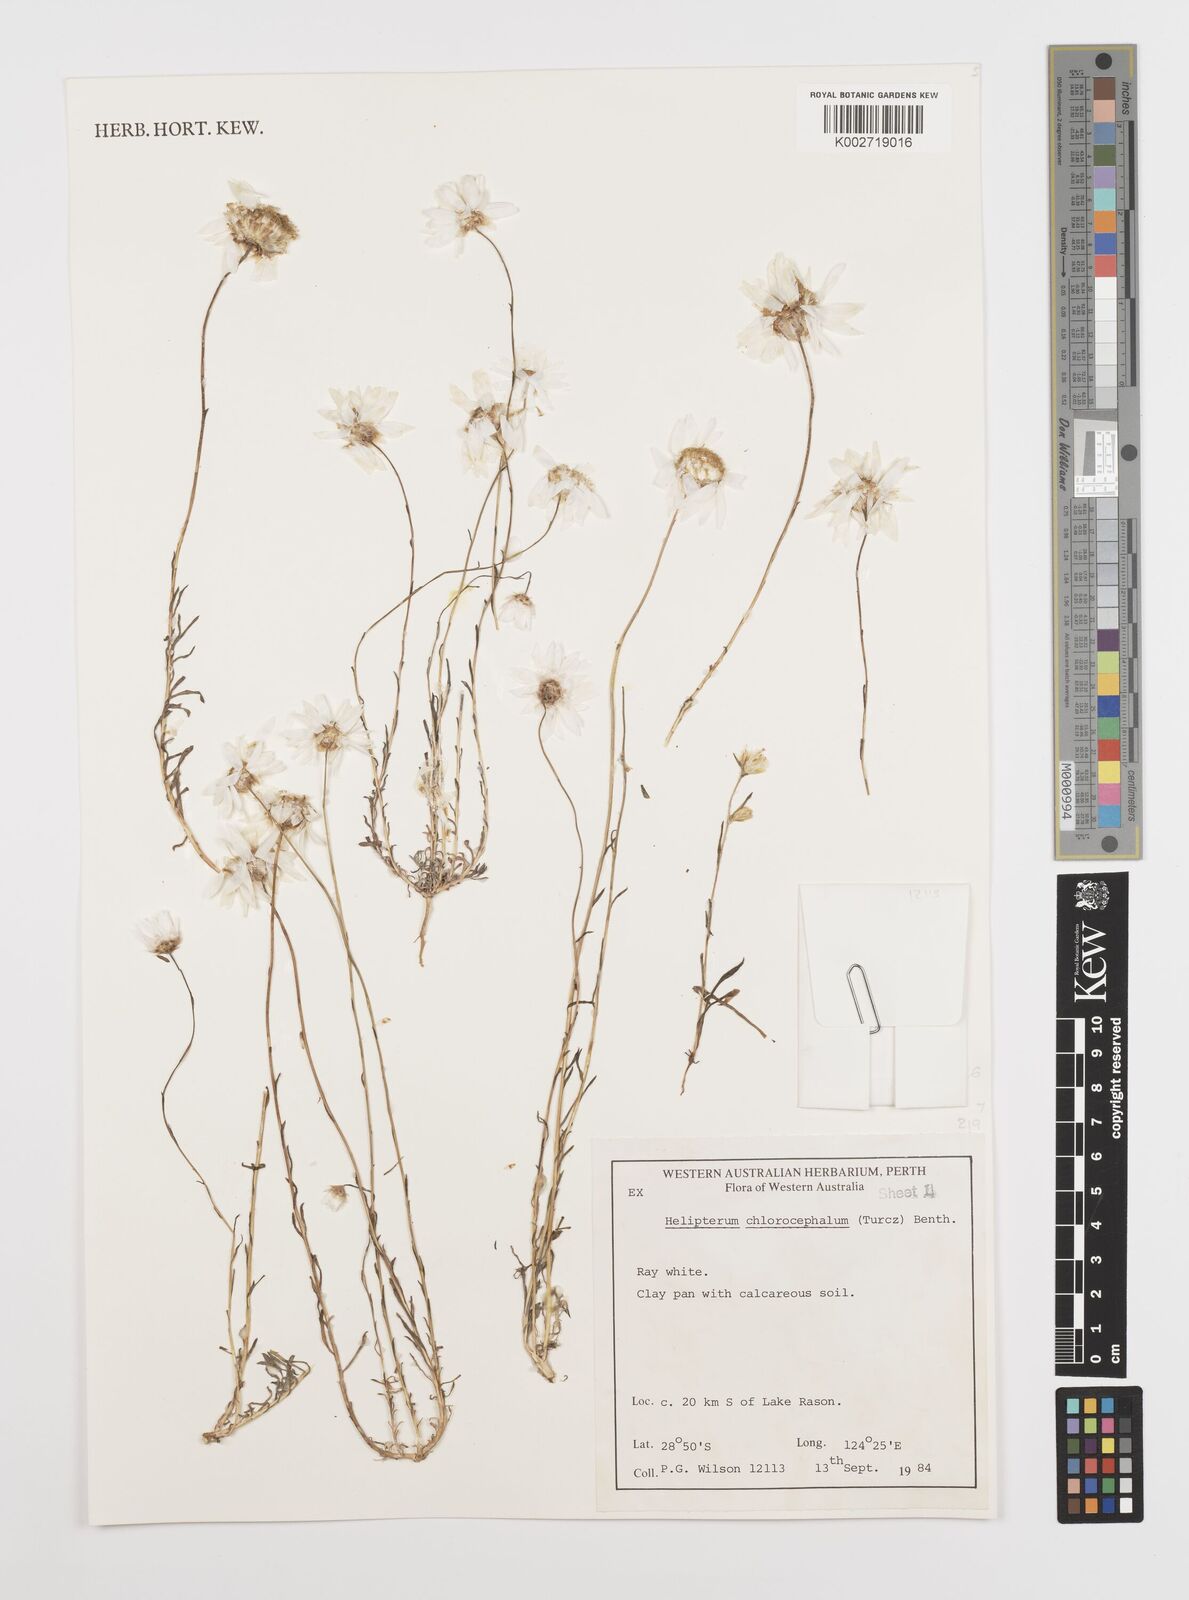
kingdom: Plantae
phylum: Tracheophyta
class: Magnoliopsida
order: Asterales
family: Asteraceae
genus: Rhodanthe
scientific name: Rhodanthe chlorocephala
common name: Rosy sunray
